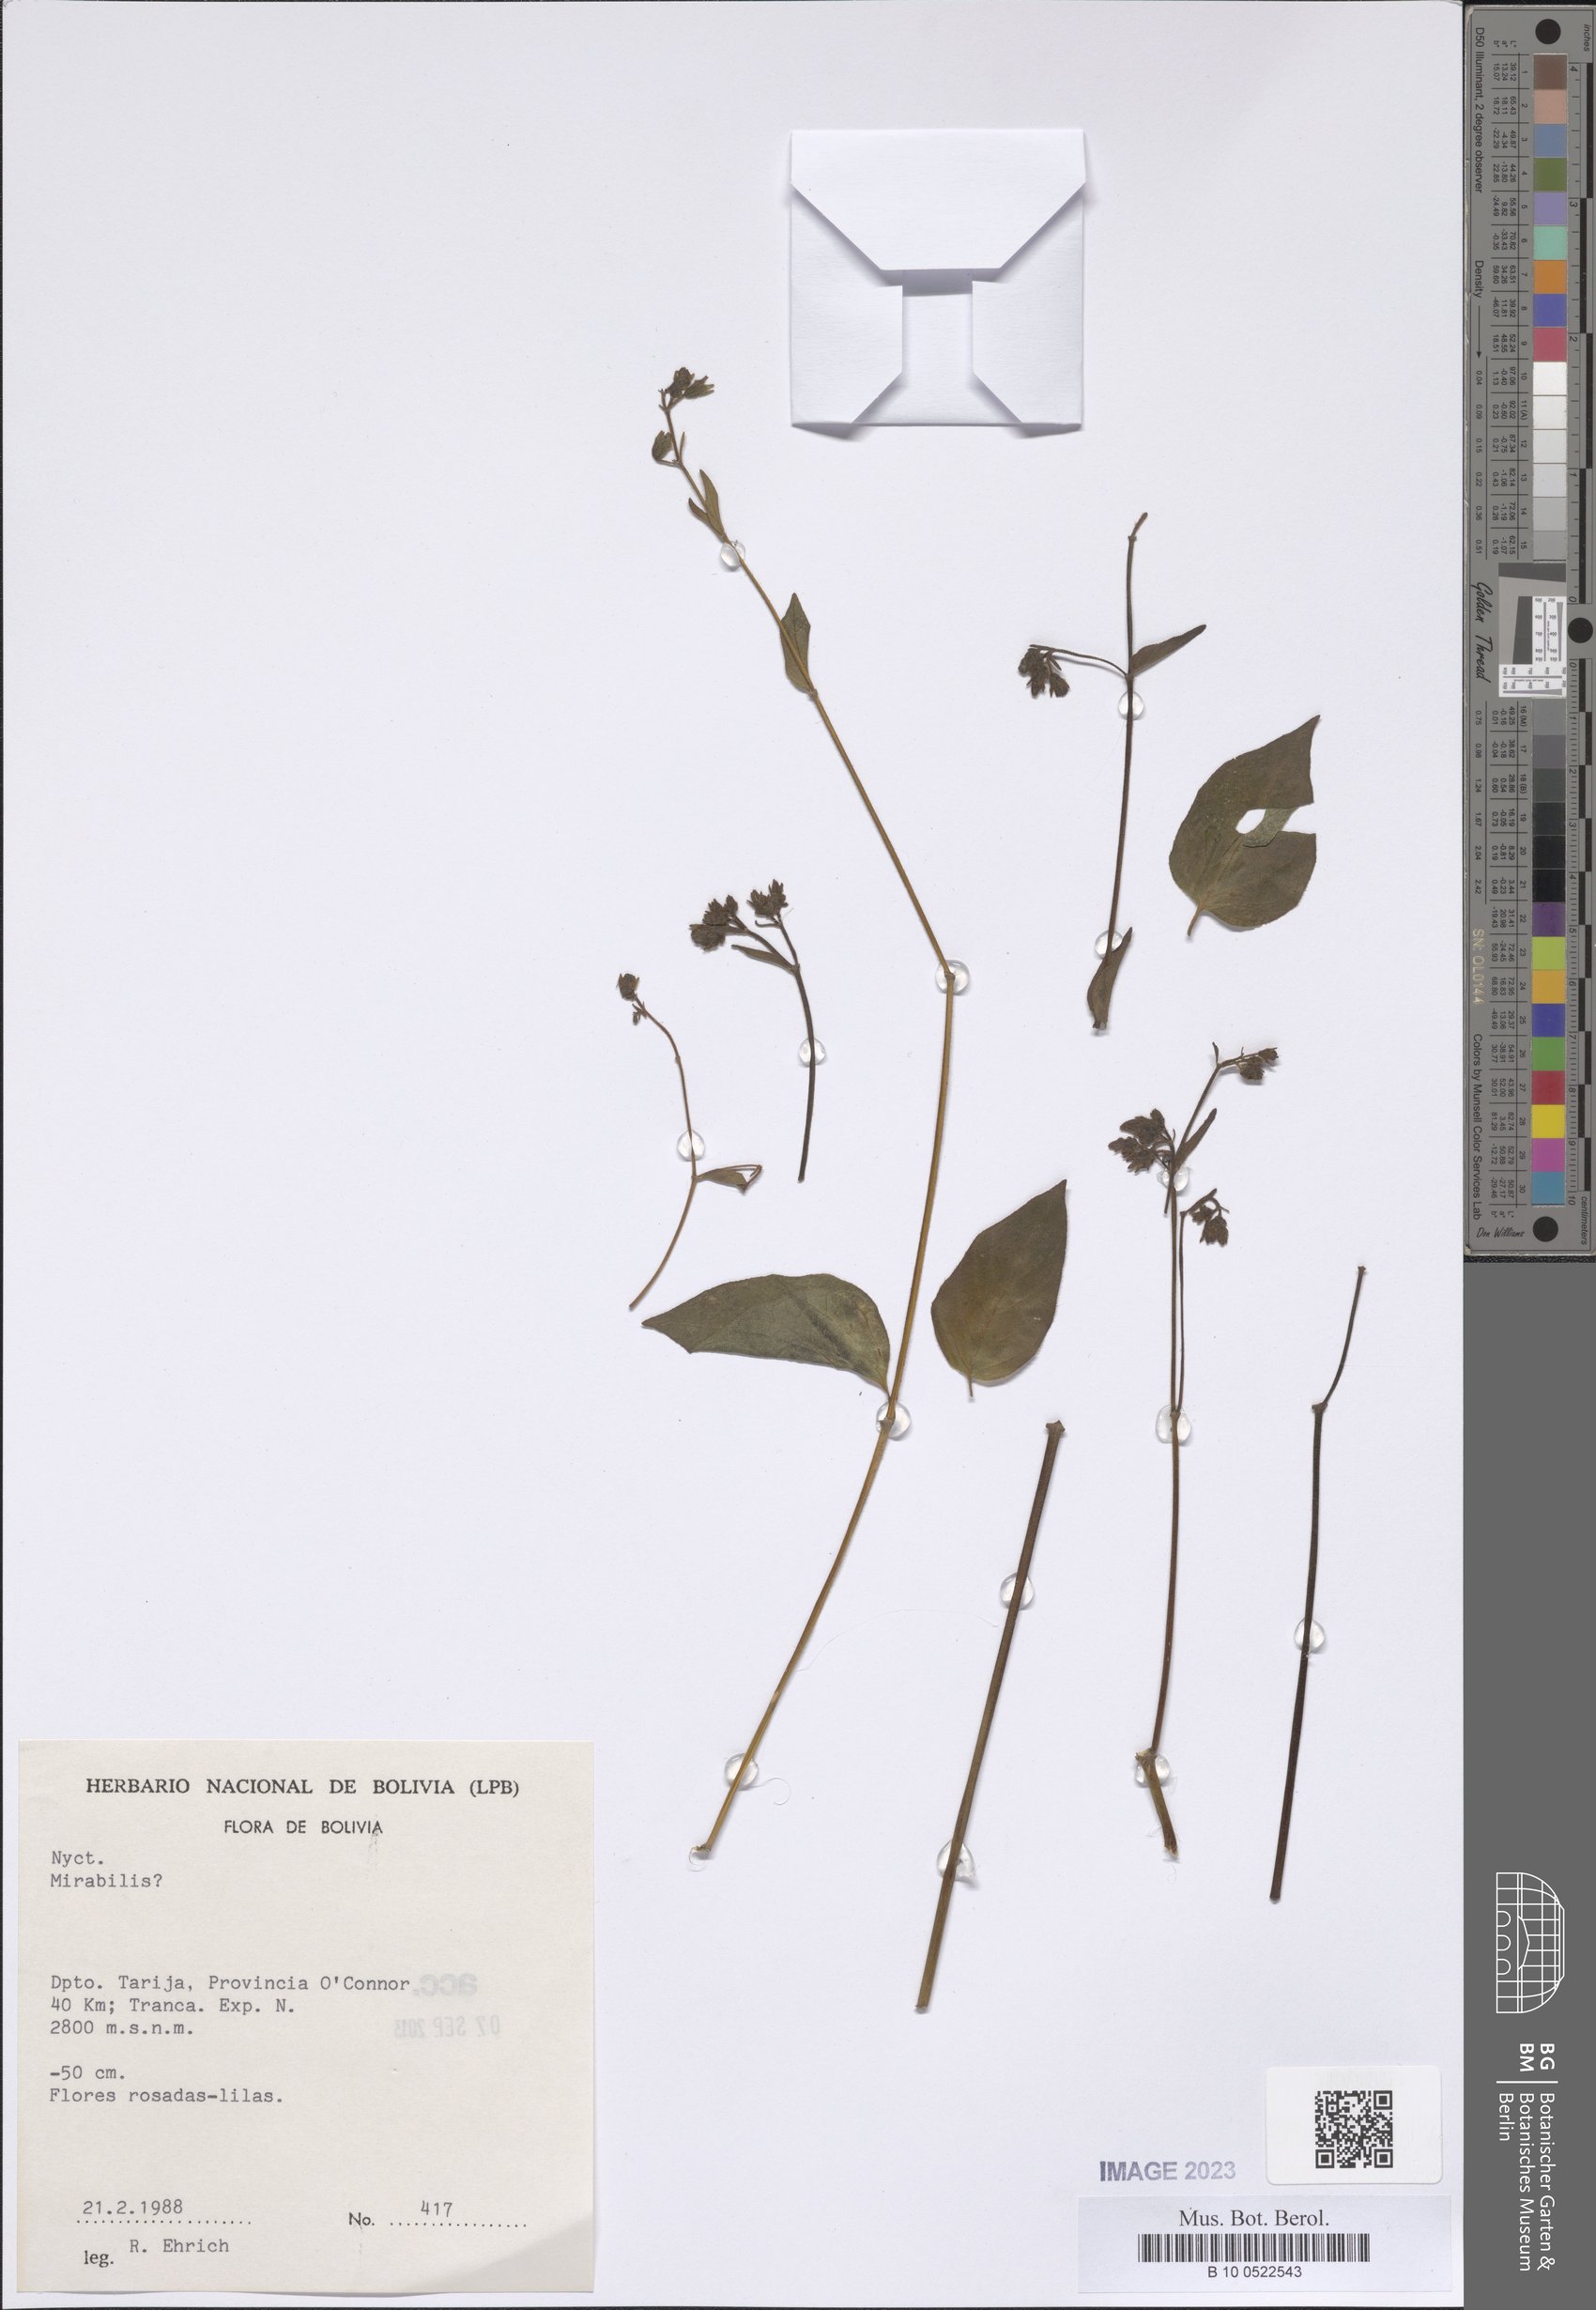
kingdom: Plantae
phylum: Tracheophyta
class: Magnoliopsida
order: Caryophyllales
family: Nyctaginaceae
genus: Mirabilis
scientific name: Mirabilis
